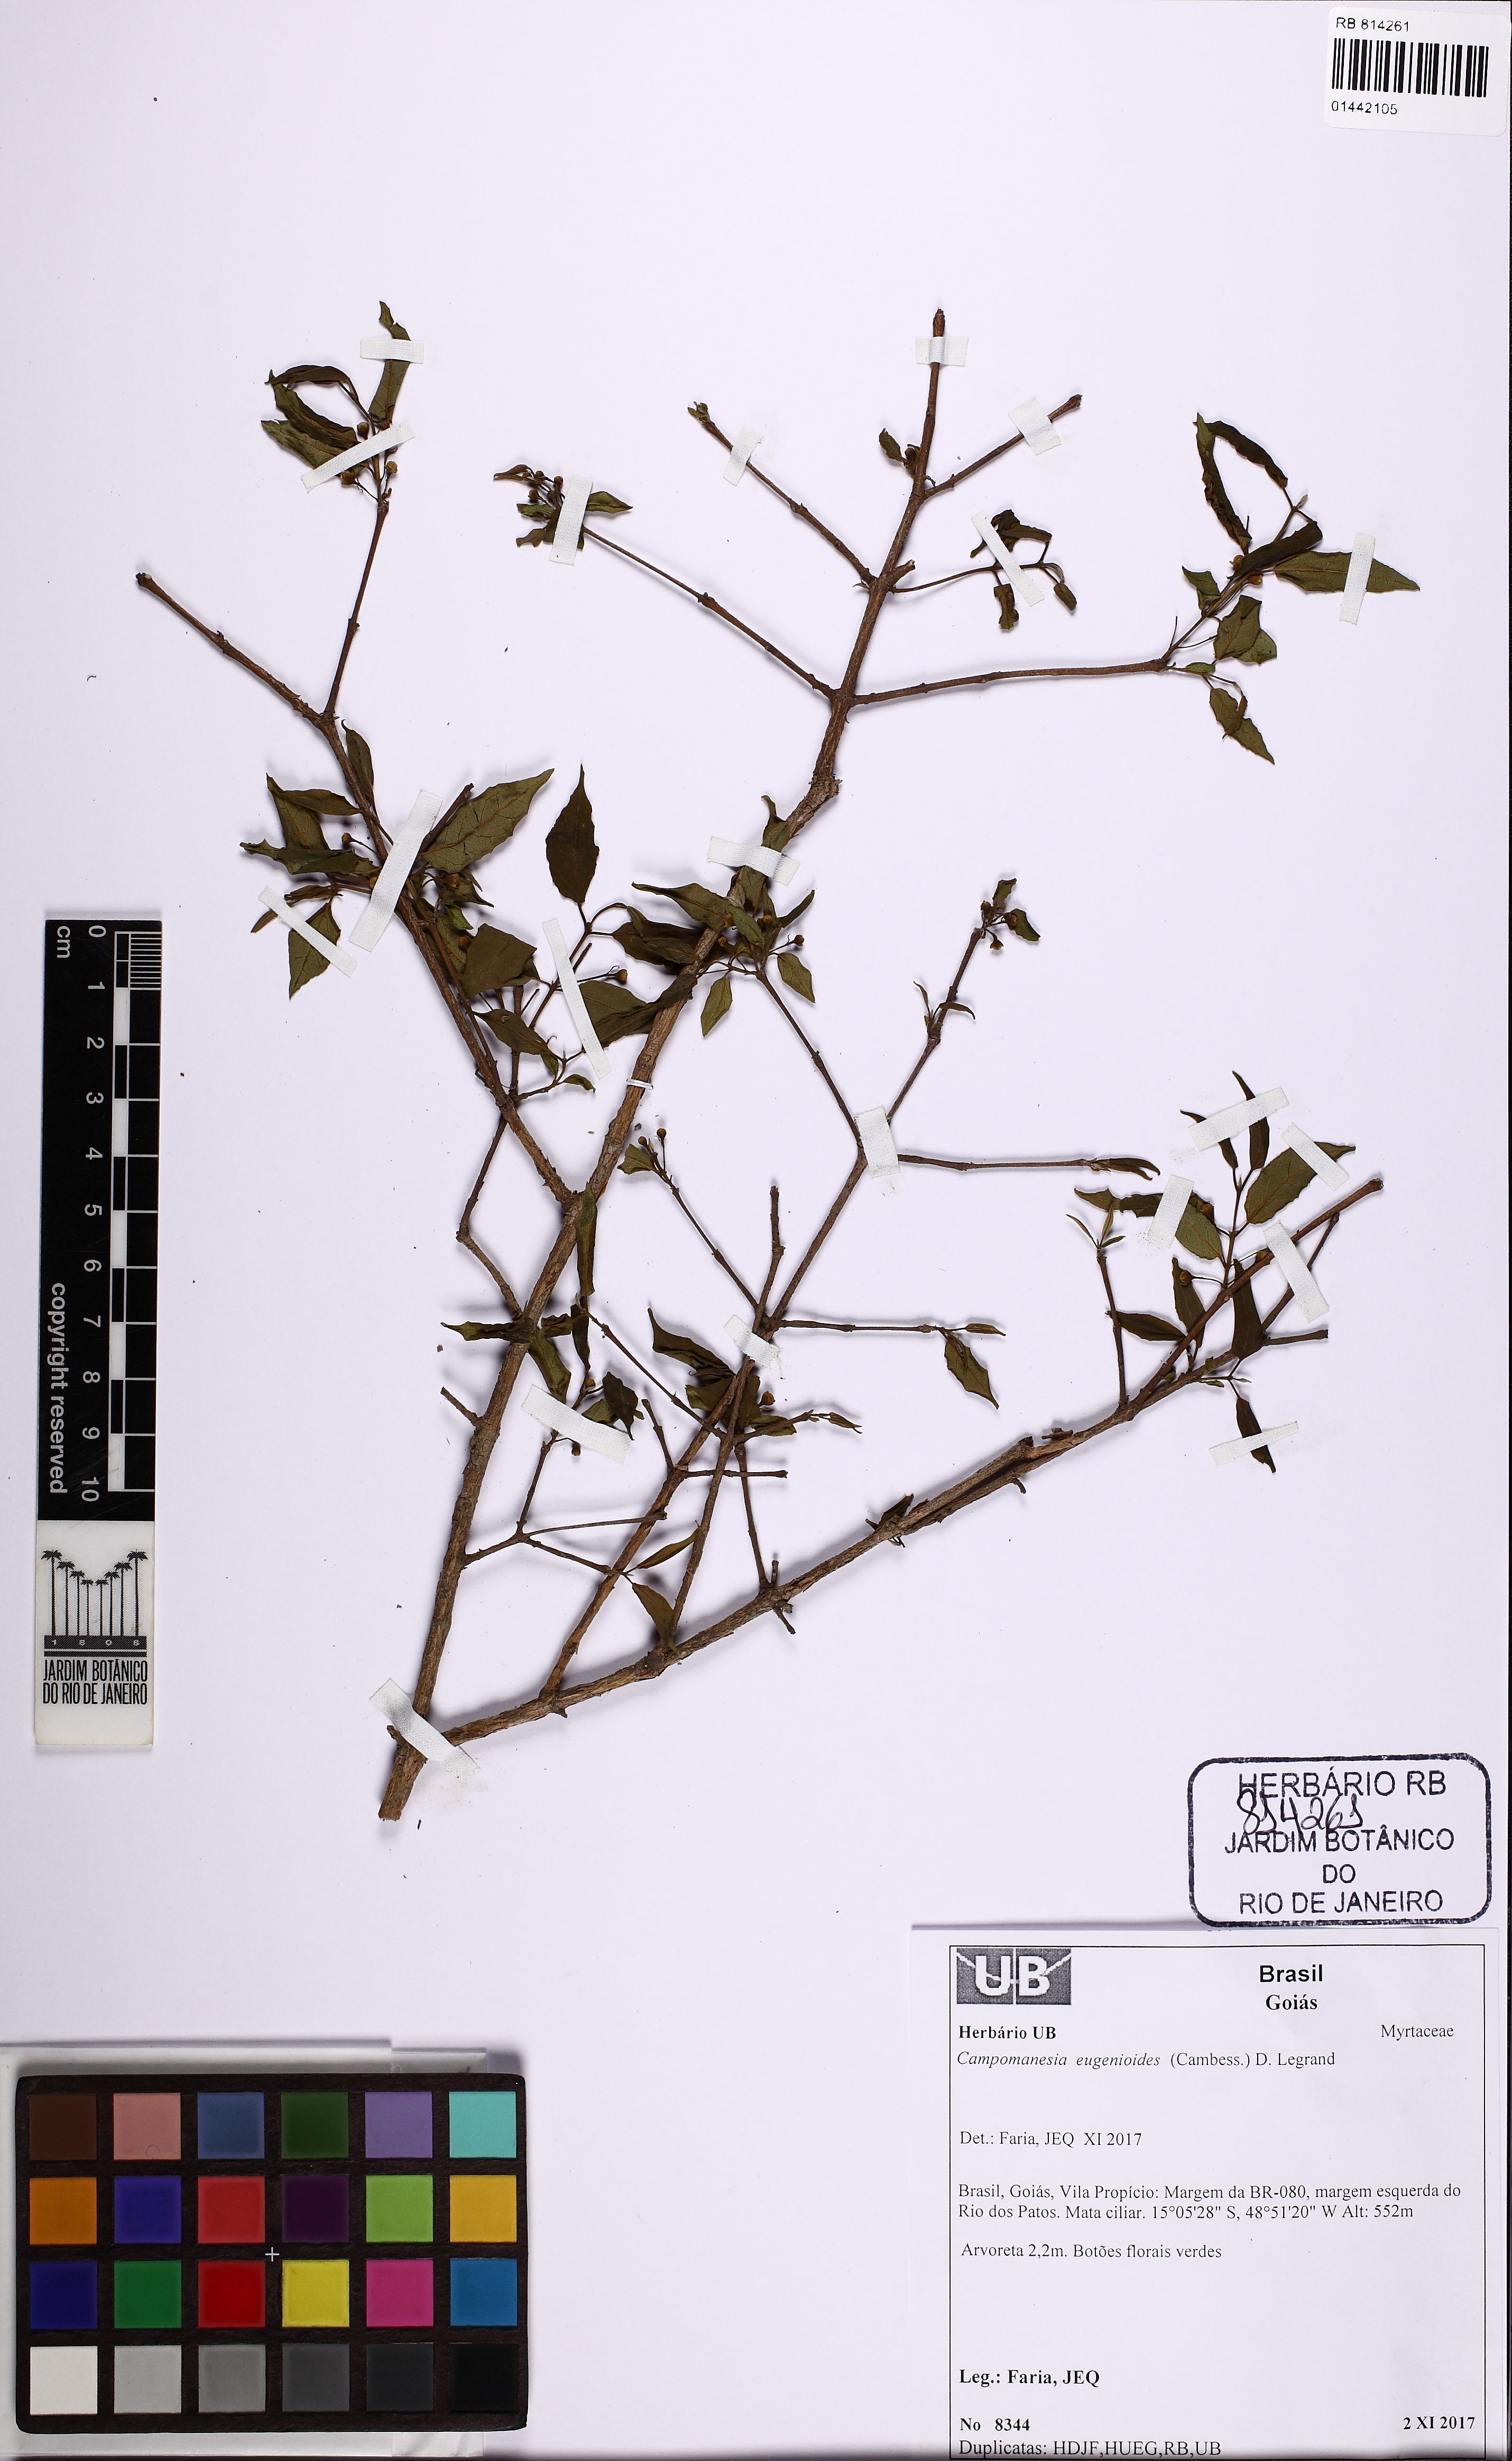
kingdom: Plantae
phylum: Tracheophyta
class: Magnoliopsida
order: Myrtales
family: Myrtaceae
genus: Campomanesia
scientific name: Campomanesia eugenioides
